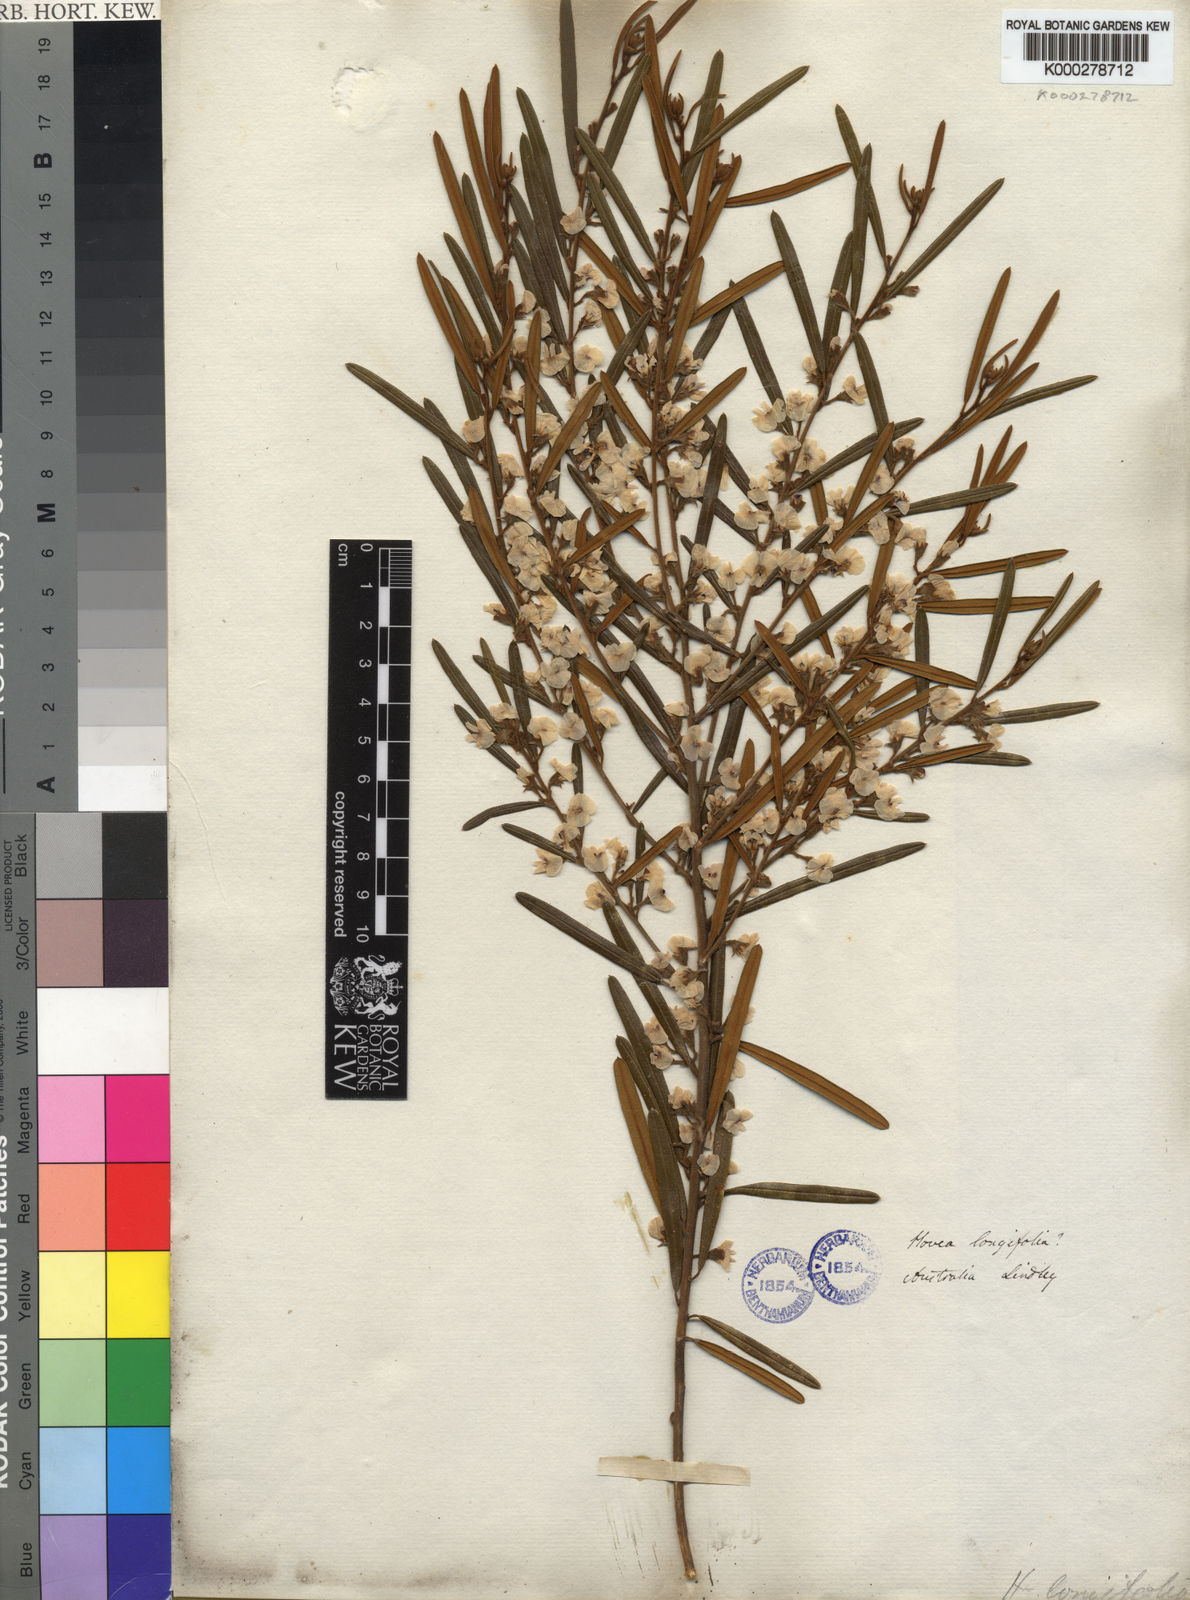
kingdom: Plantae
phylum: Tracheophyta
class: Magnoliopsida
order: Fabales
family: Fabaceae
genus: Hovea
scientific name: Hovea longifolia
